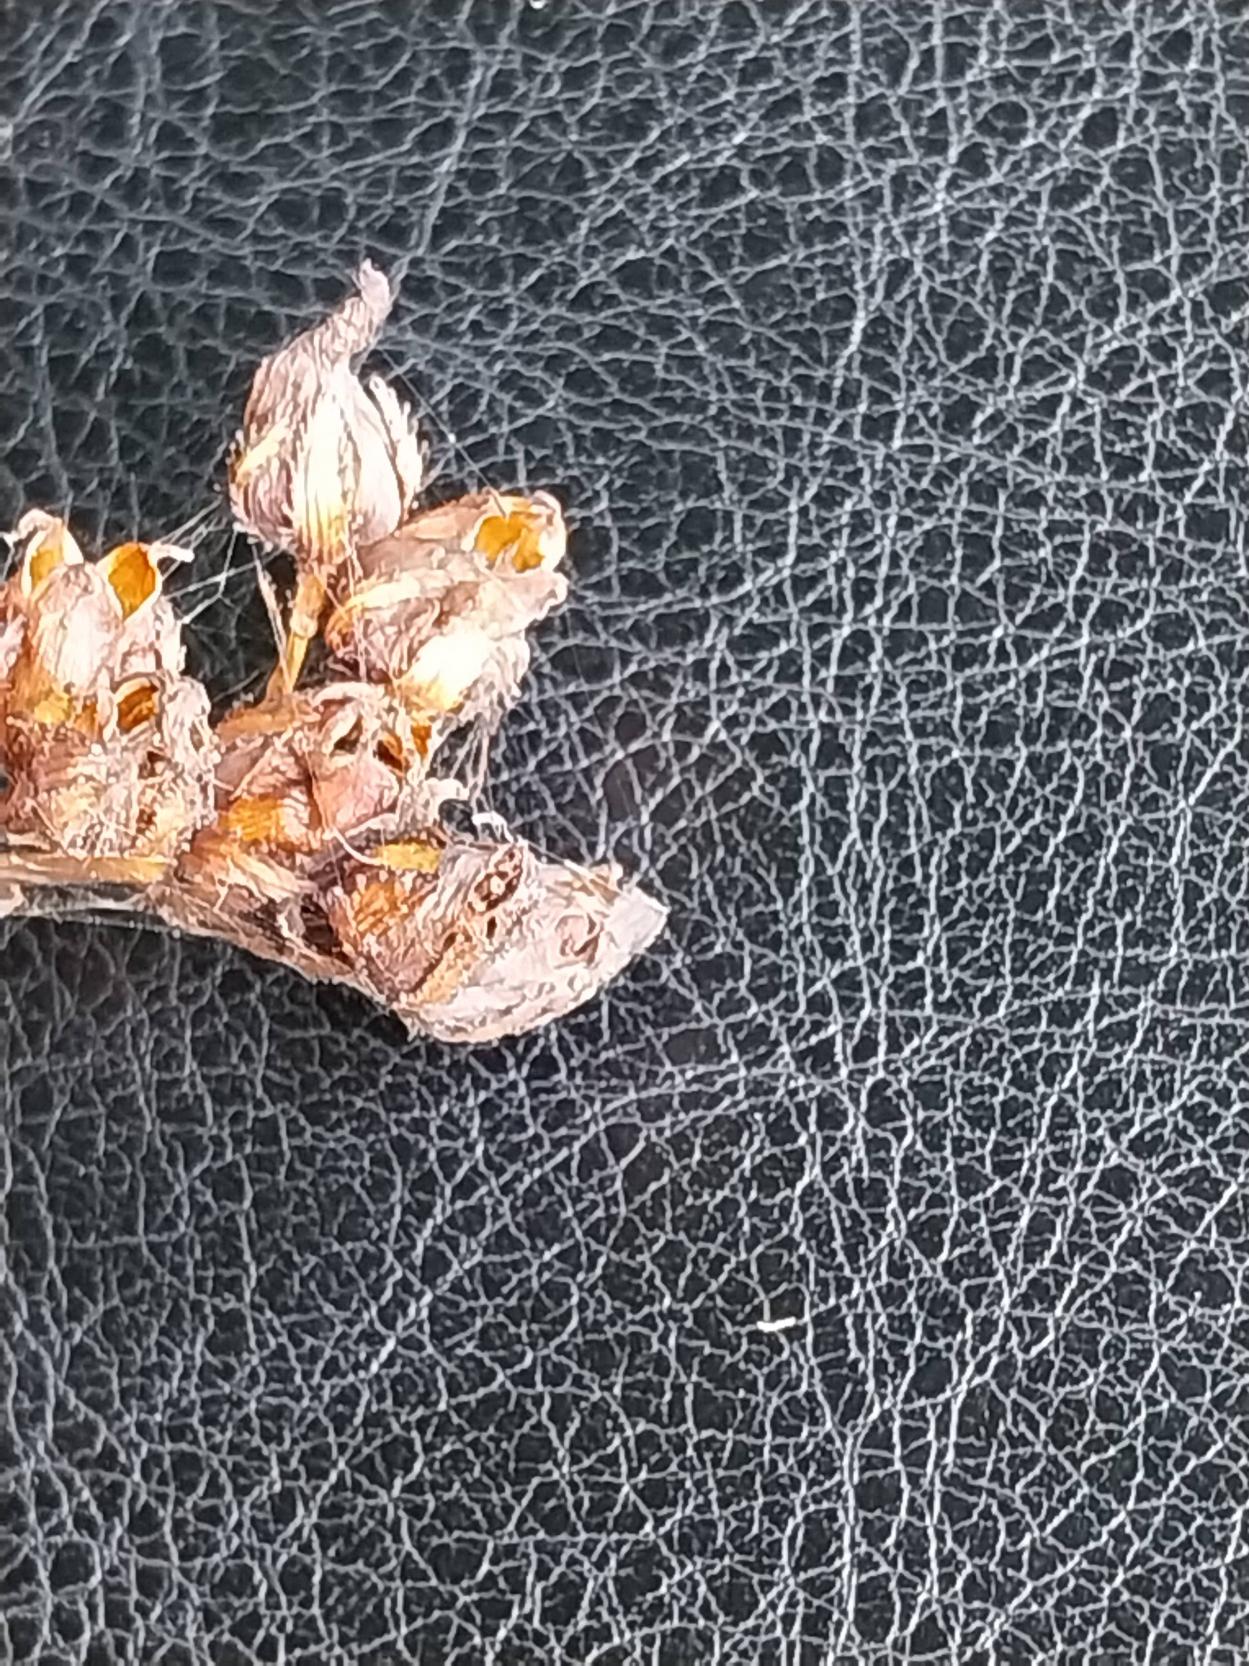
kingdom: Plantae
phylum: Tracheophyta
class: Magnoliopsida
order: Malpighiales
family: Hypericaceae
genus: Hypericum
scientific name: Hypericum montanum
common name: Bjerg-perikon
